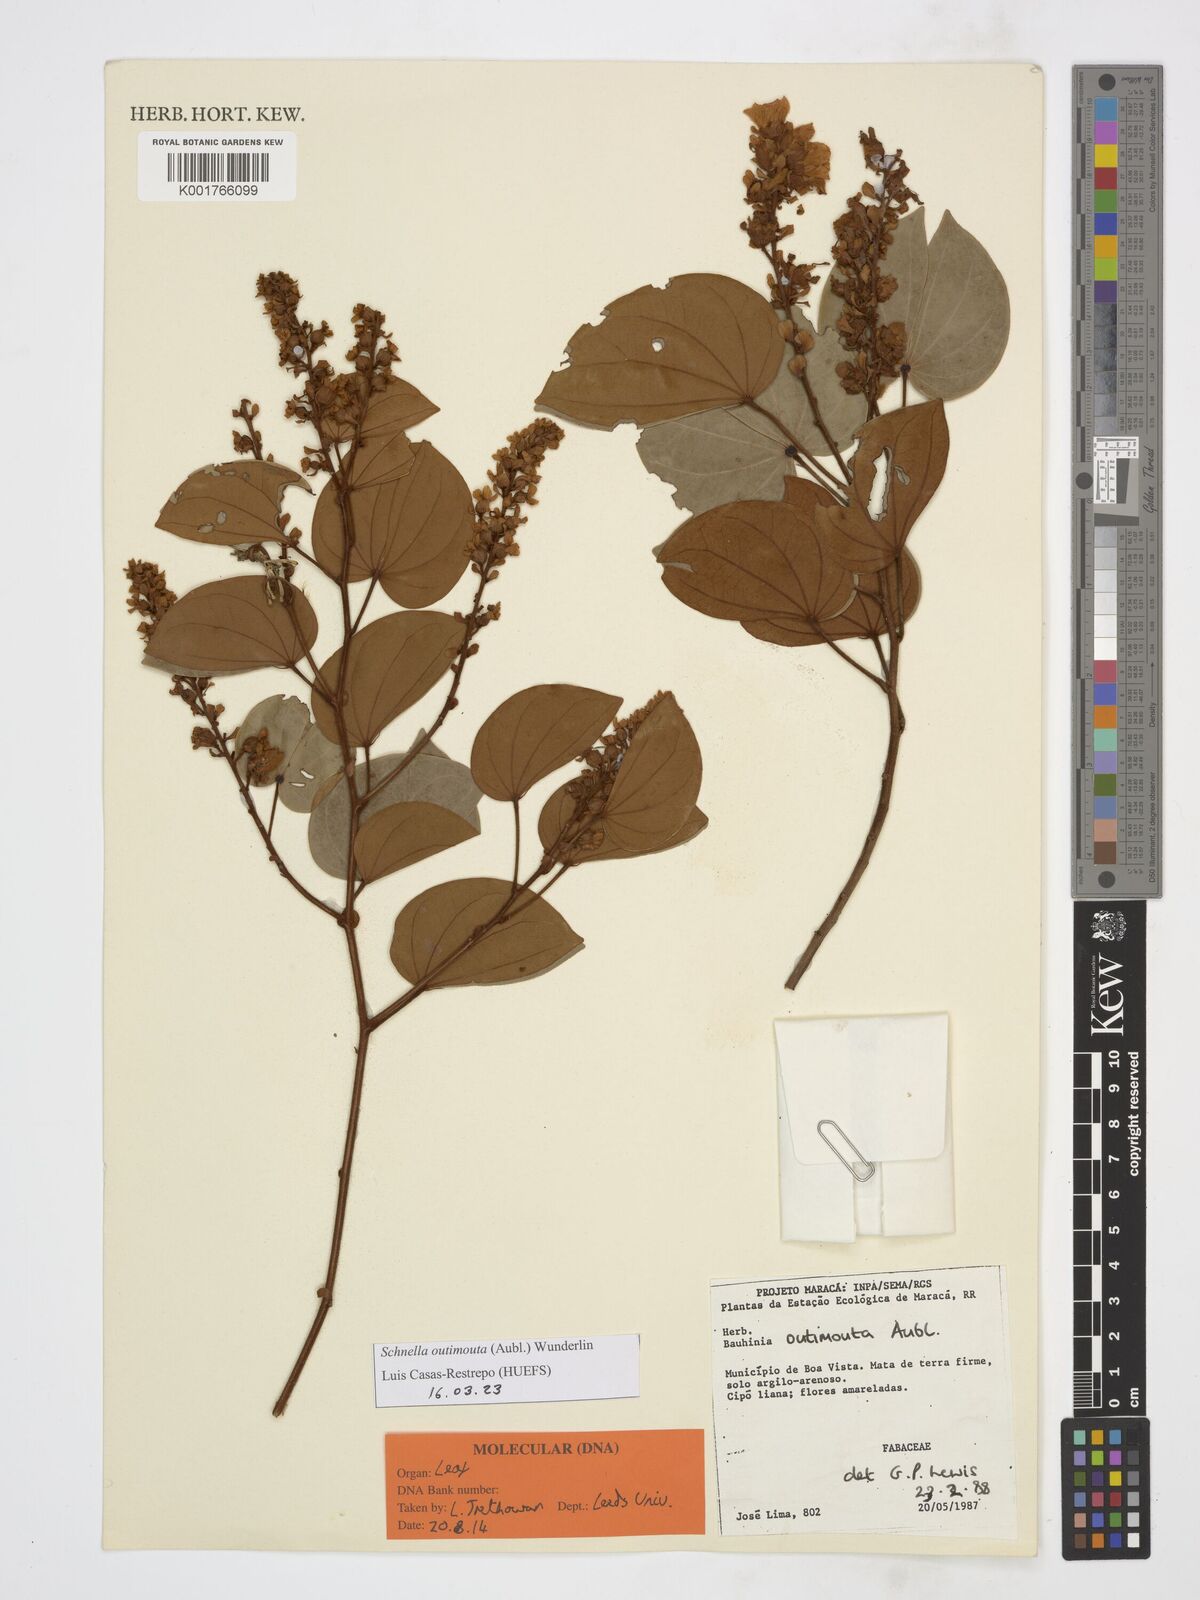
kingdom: Plantae
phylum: Tracheophyta
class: Magnoliopsida
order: Fabales
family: Fabaceae
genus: Schnella
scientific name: Schnella outimouta
